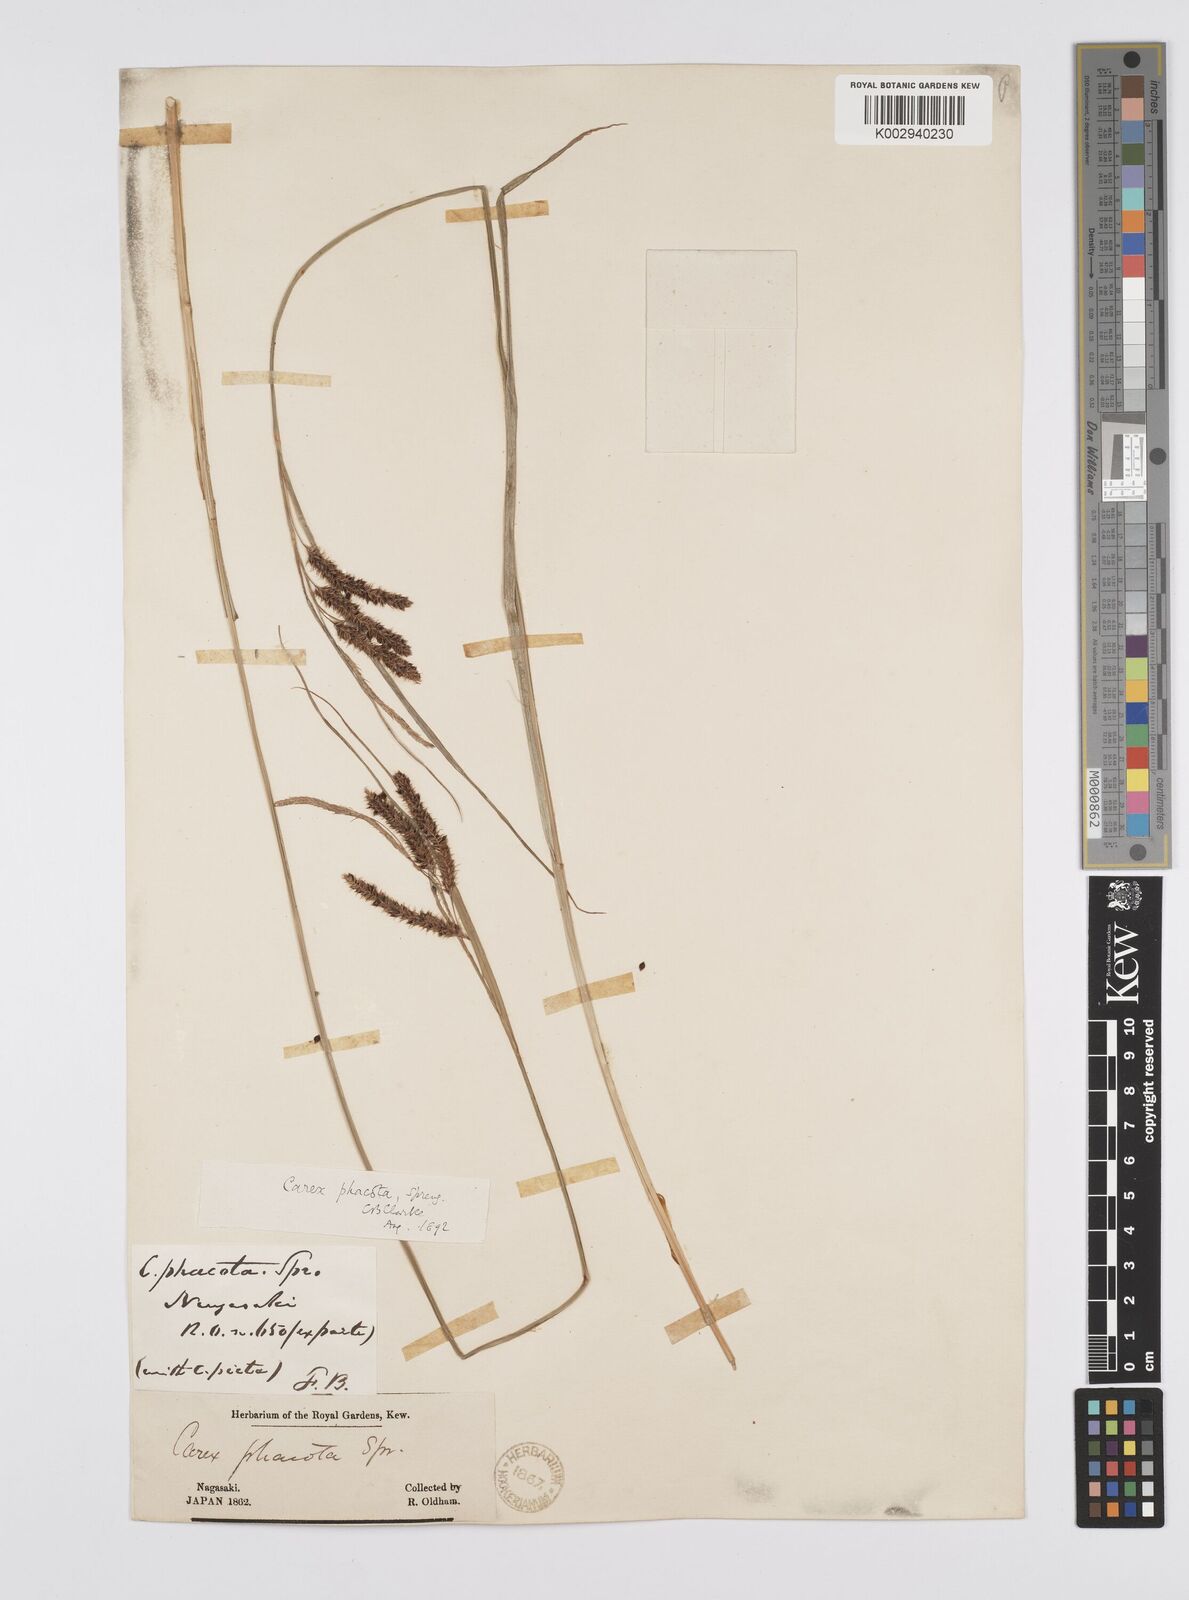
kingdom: Plantae
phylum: Tracheophyta
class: Liliopsida
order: Poales
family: Cyperaceae
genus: Carex
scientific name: Carex phacota
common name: Lakeshore sedge
